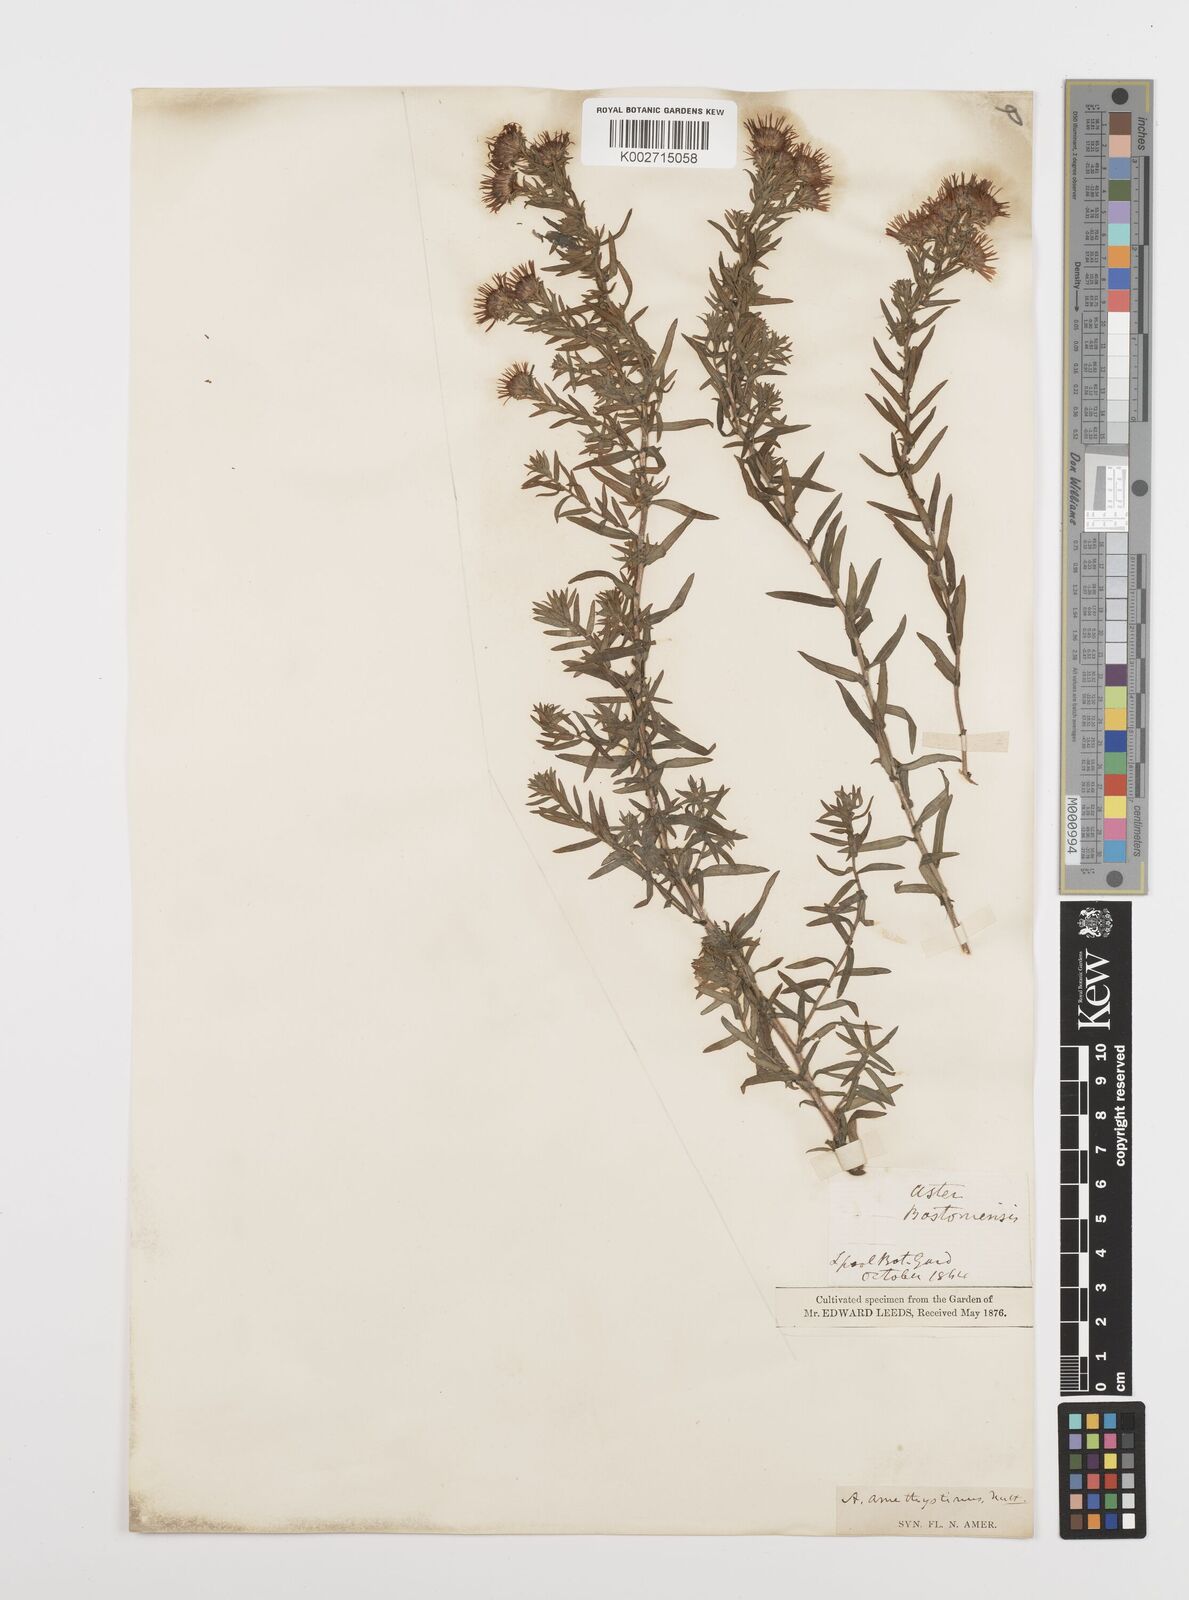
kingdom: Plantae
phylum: Tracheophyta
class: Magnoliopsida
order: Asterales
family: Asteraceae
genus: Symphyotrichum
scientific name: Symphyotrichum amethystinum
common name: Amethyst aster
